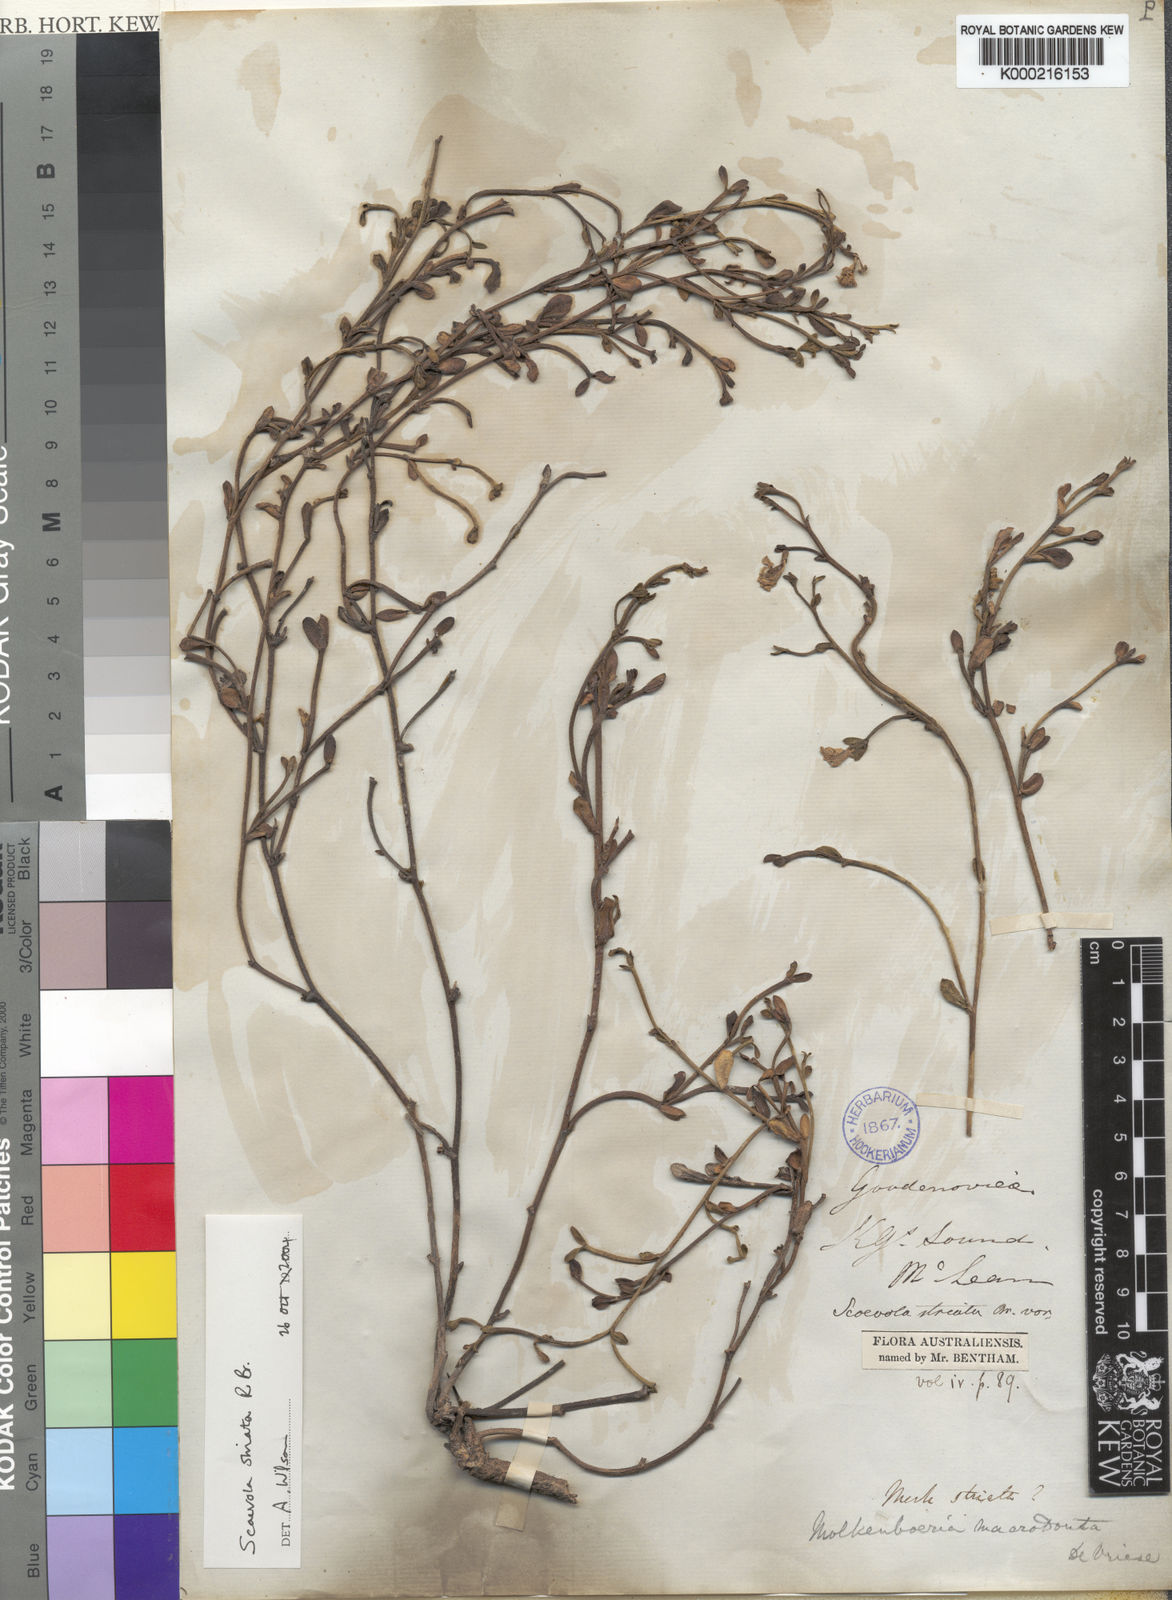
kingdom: Plantae
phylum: Tracheophyta
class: Magnoliopsida
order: Asterales
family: Goodeniaceae
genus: Scaevola
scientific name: Scaevola striata
